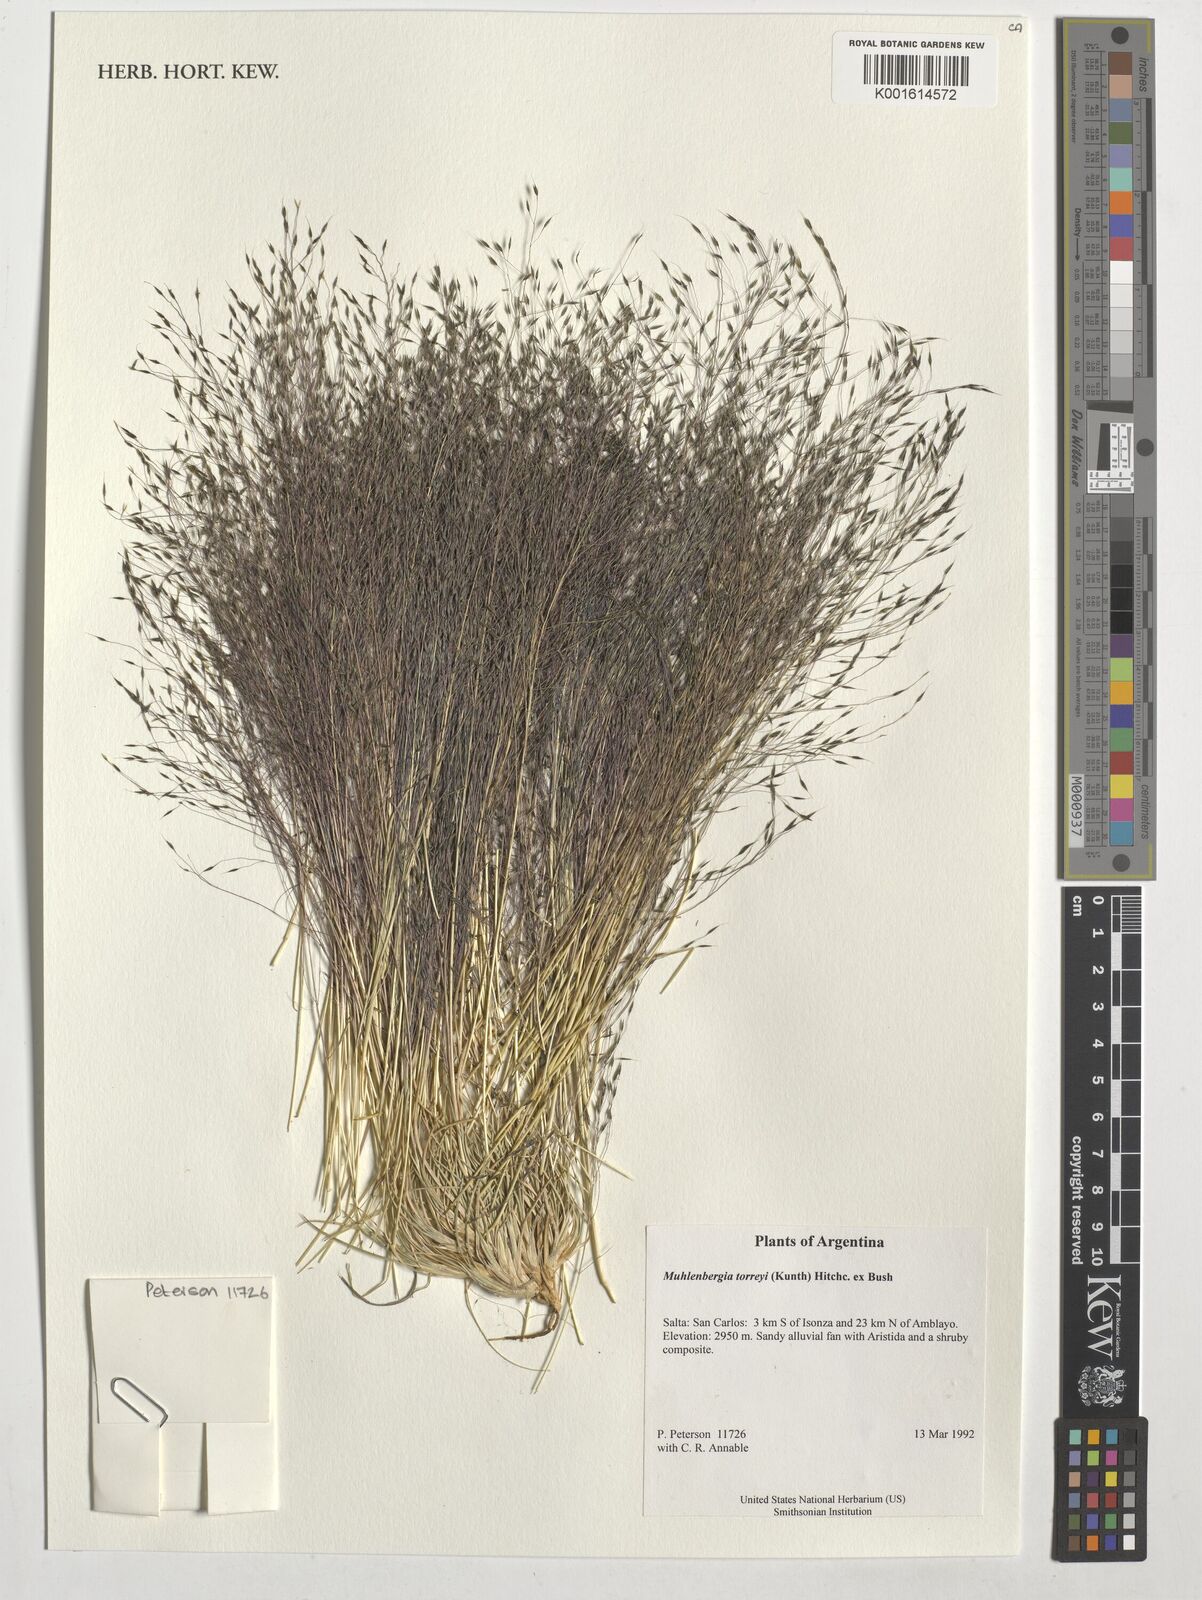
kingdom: Plantae
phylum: Tracheophyta
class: Liliopsida
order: Poales
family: Poaceae
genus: Muhlenbergia
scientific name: Muhlenbergia torreyi
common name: Ring grass
